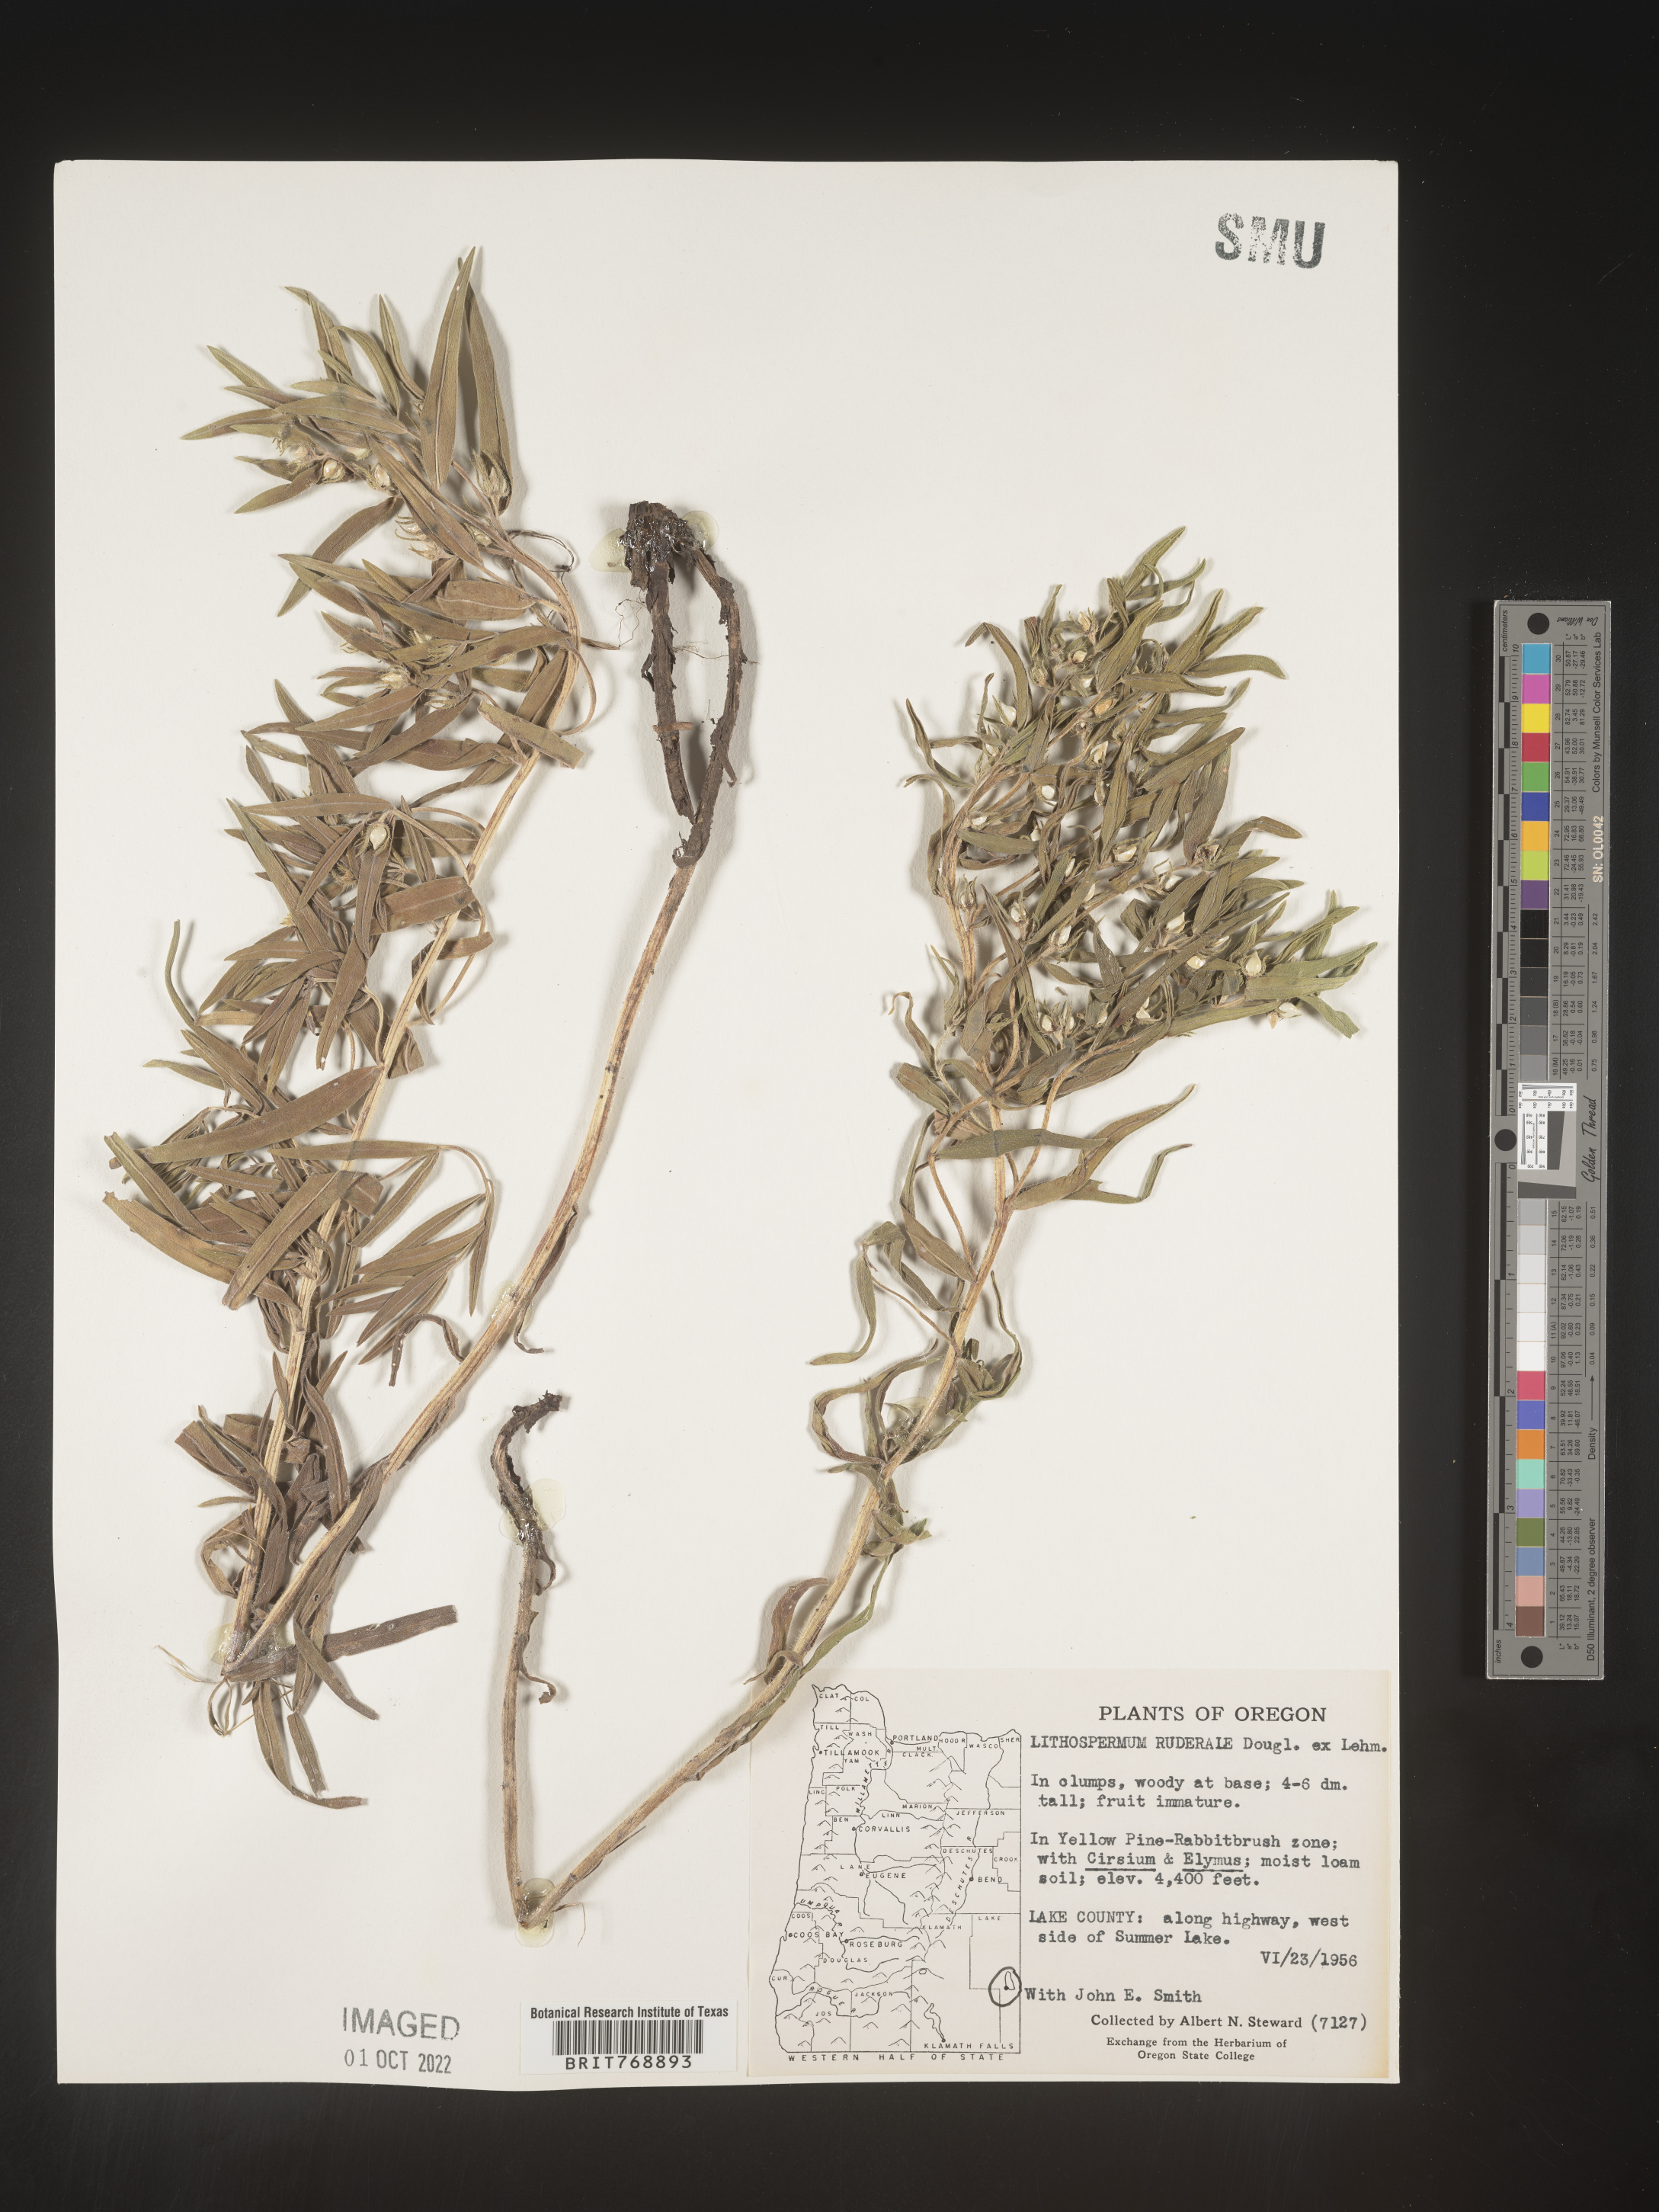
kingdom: Plantae
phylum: Tracheophyta
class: Magnoliopsida
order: Boraginales
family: Boraginaceae
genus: Lithospermum
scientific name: Lithospermum
